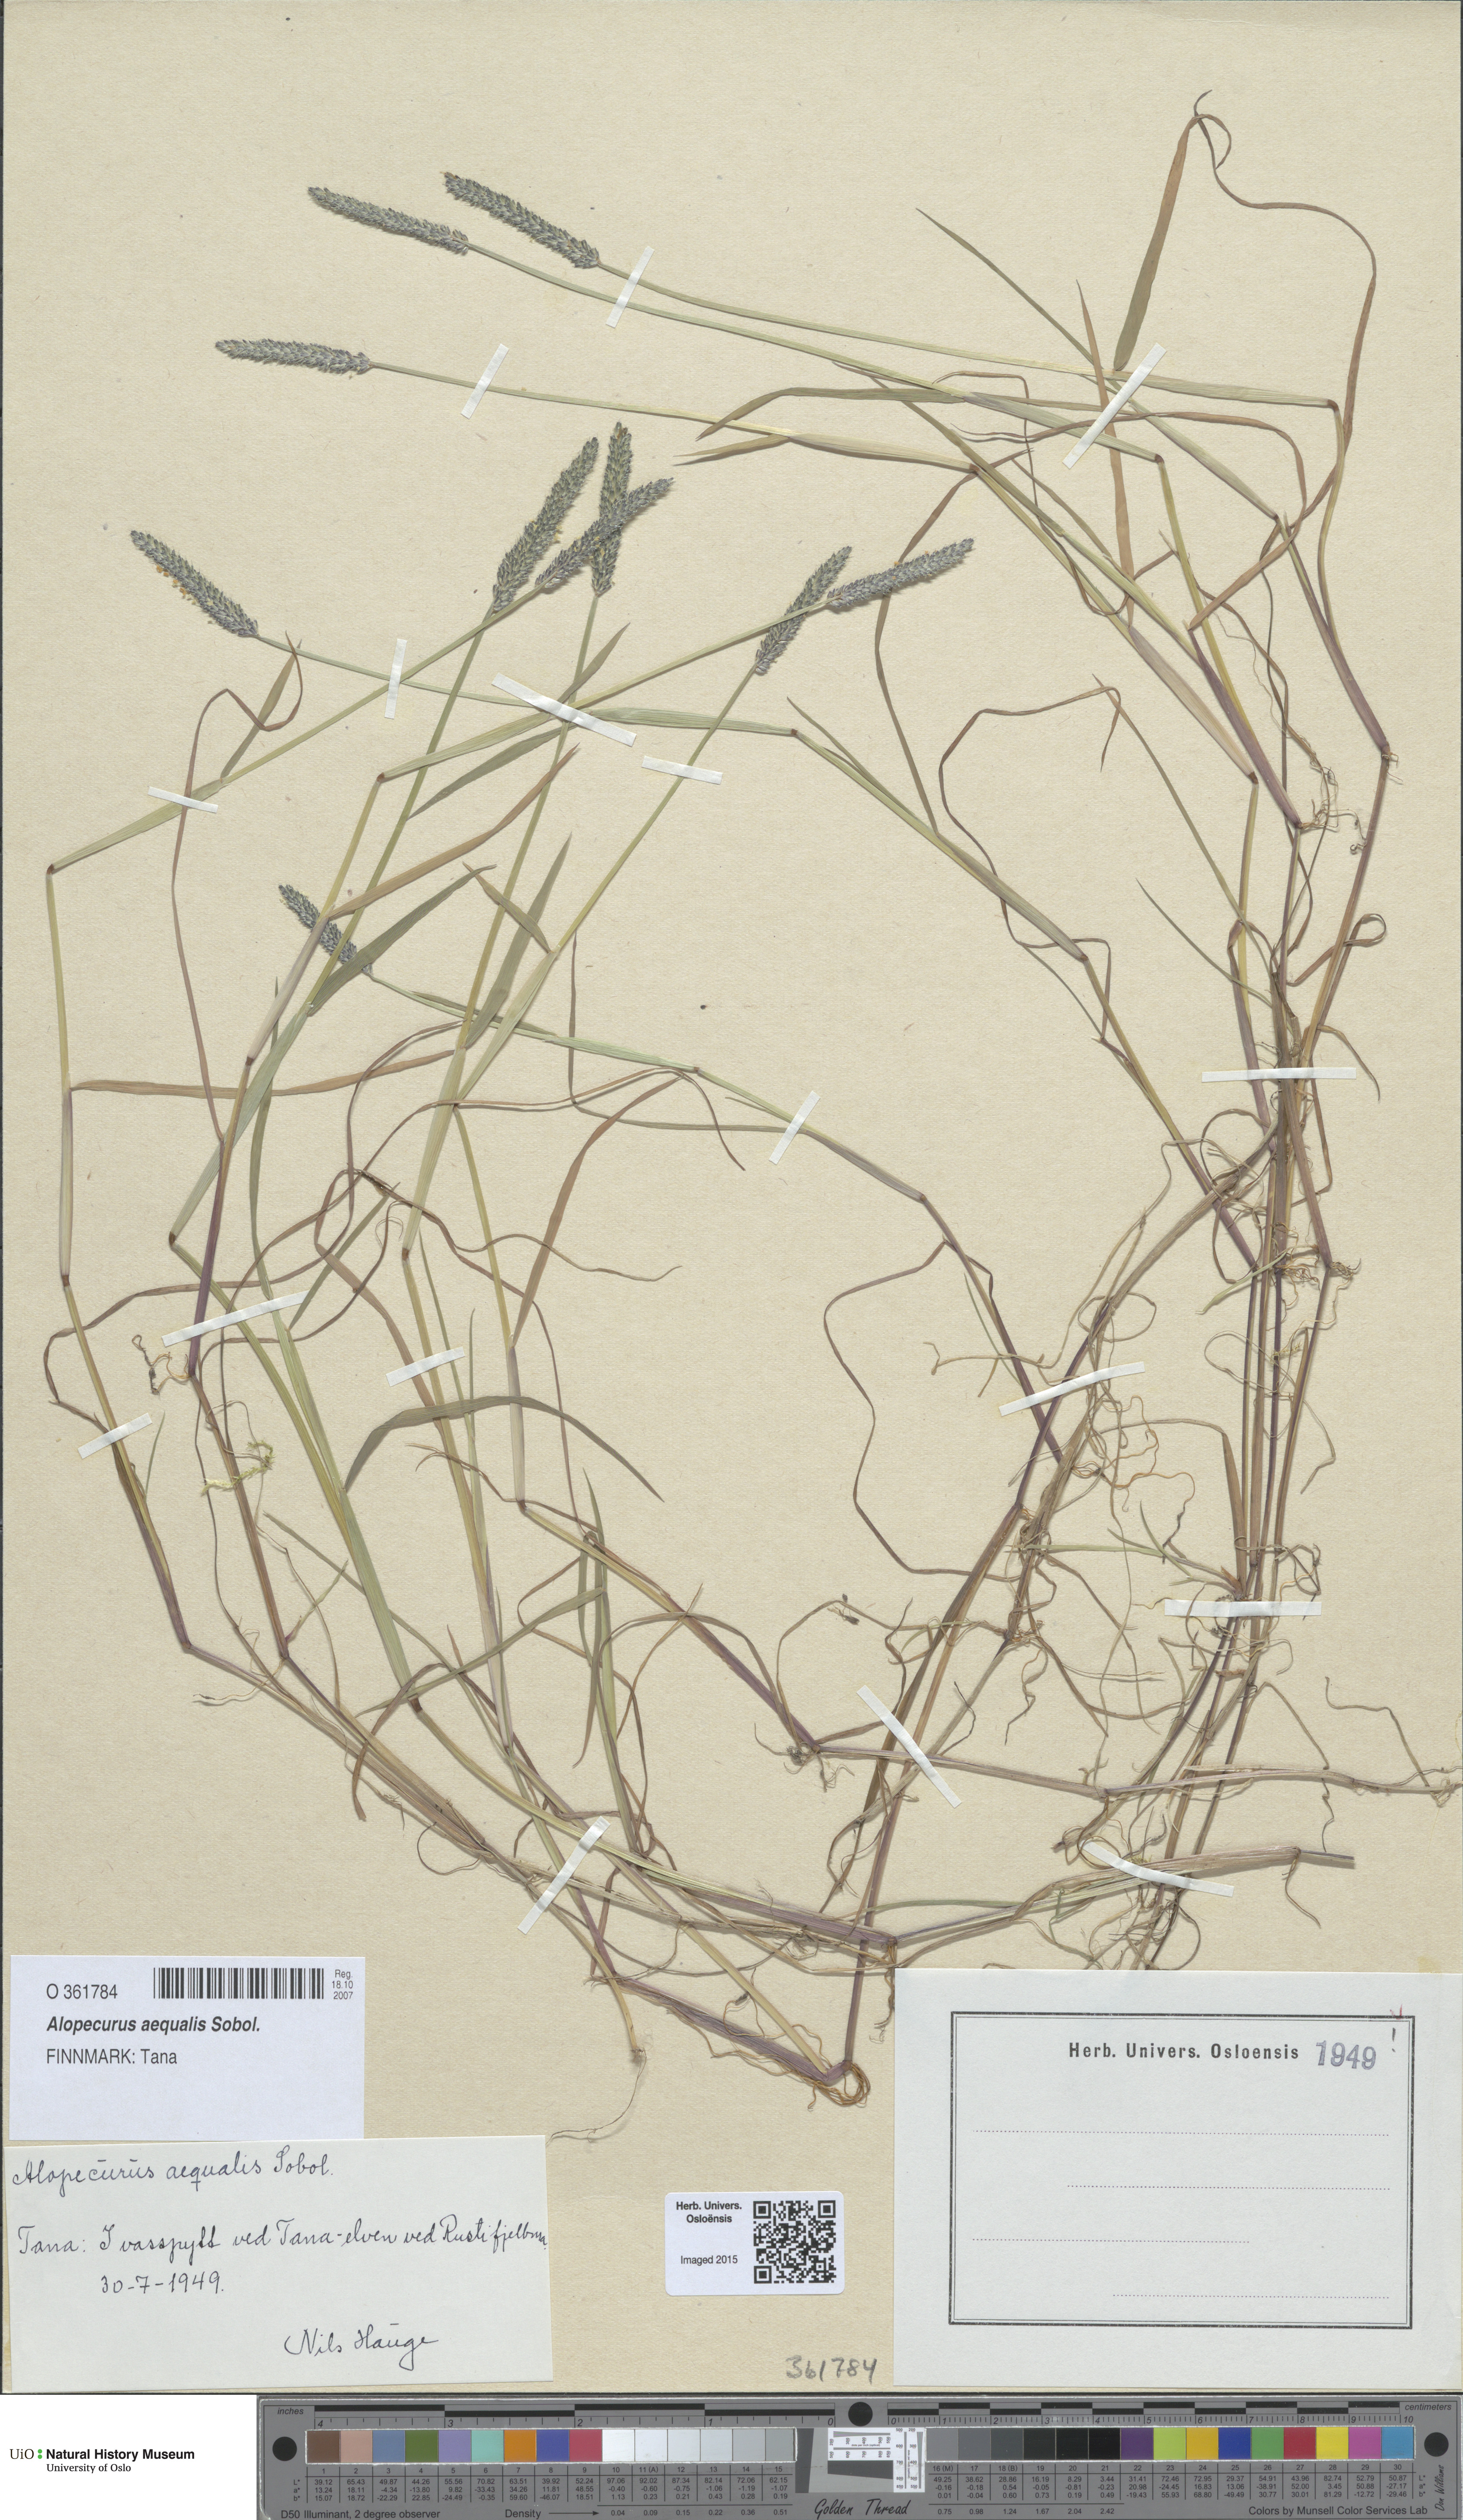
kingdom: Plantae
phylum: Tracheophyta
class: Liliopsida
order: Poales
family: Poaceae
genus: Alopecurus
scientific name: Alopecurus aequalis
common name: Orange foxtail
